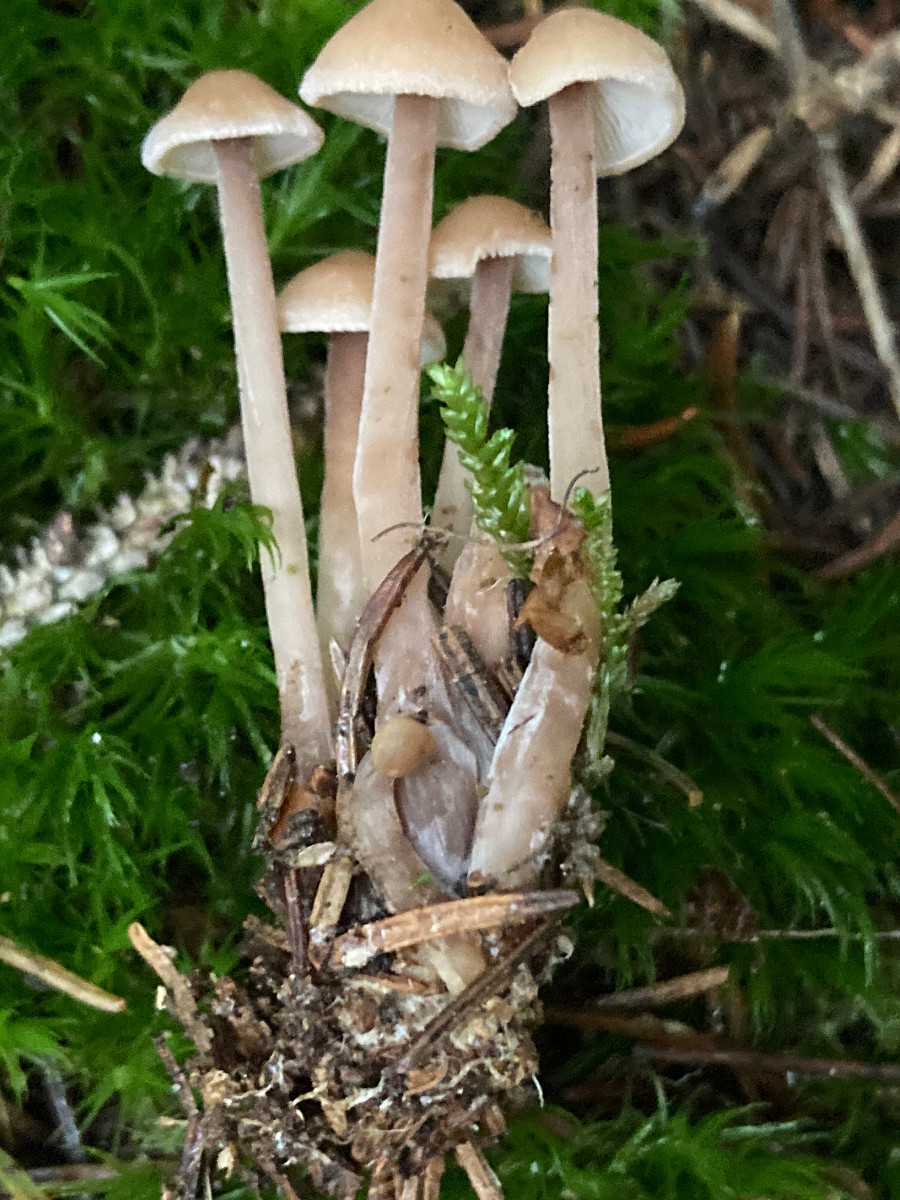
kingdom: Fungi
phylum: Basidiomycota
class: Agaricomycetes
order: Agaricales
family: Omphalotaceae
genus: Collybiopsis
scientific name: Collybiopsis confluens
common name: knippe-fladhat
